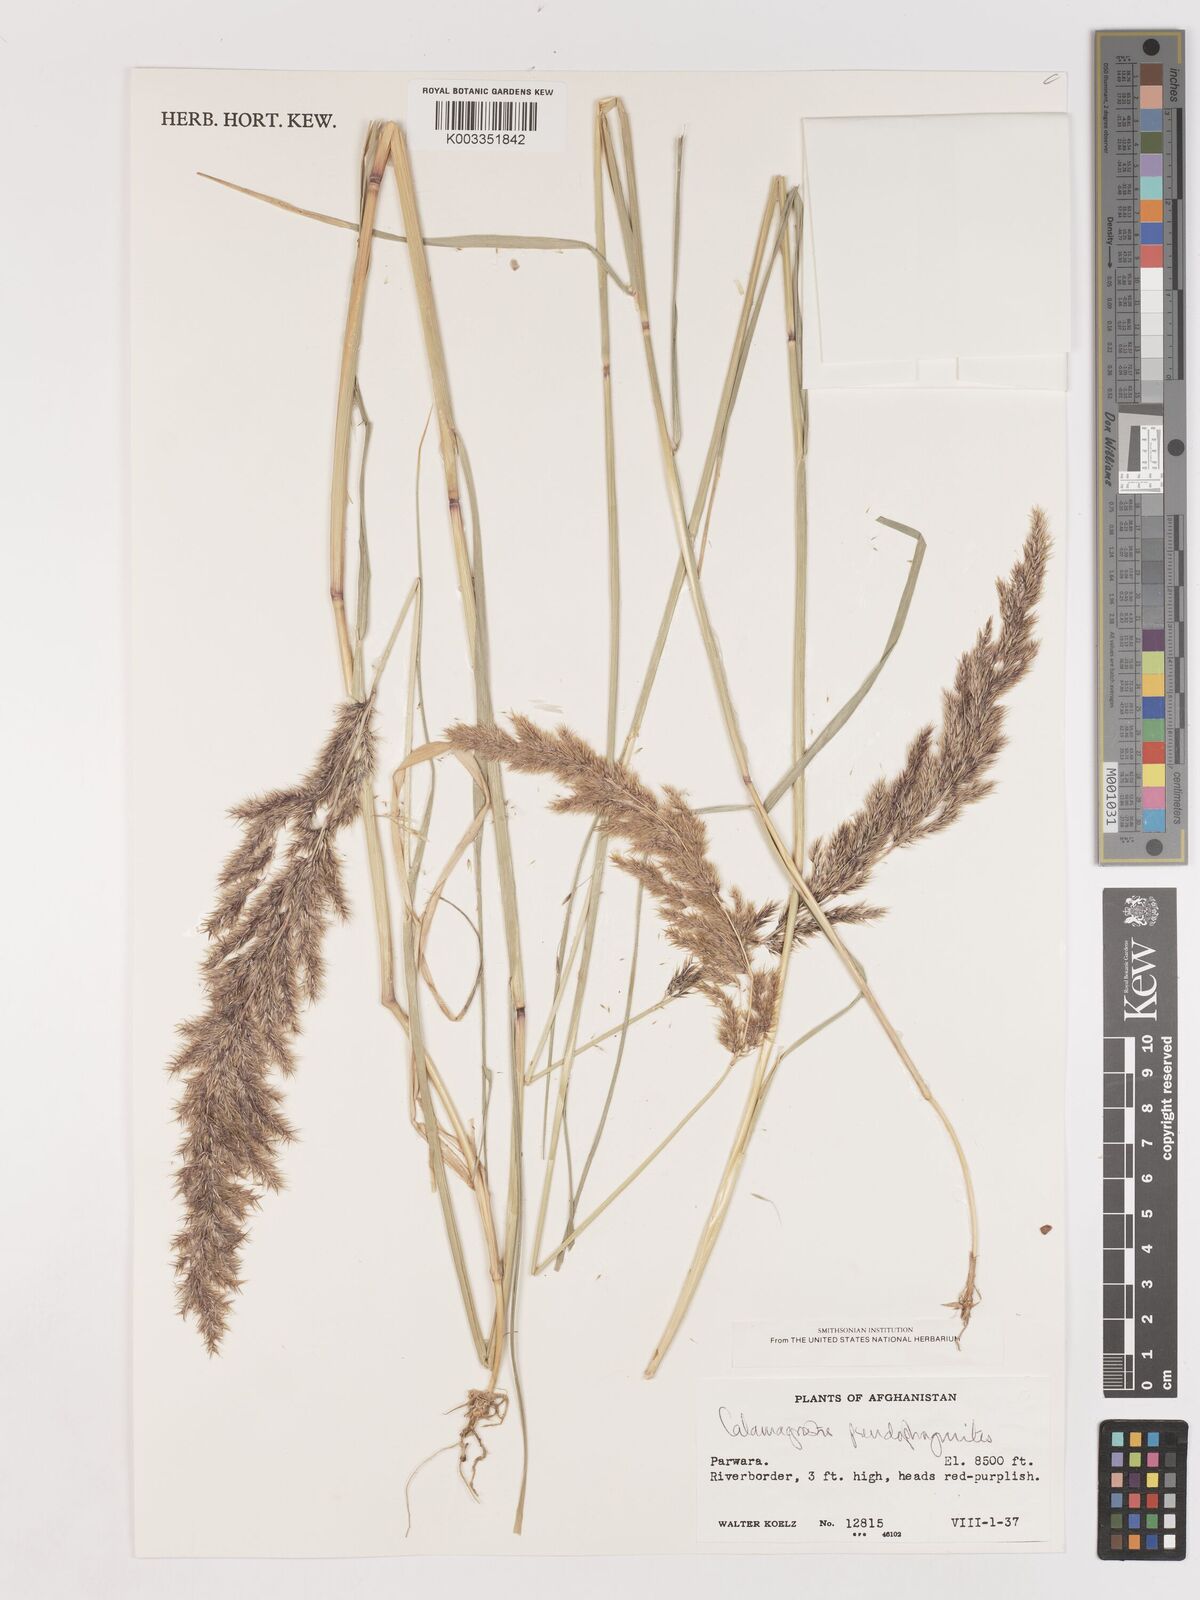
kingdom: Plantae
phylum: Tracheophyta
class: Liliopsida
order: Poales
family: Poaceae
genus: Calamagrostis
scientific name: Calamagrostis purpurea
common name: Scandinavian small-reed
